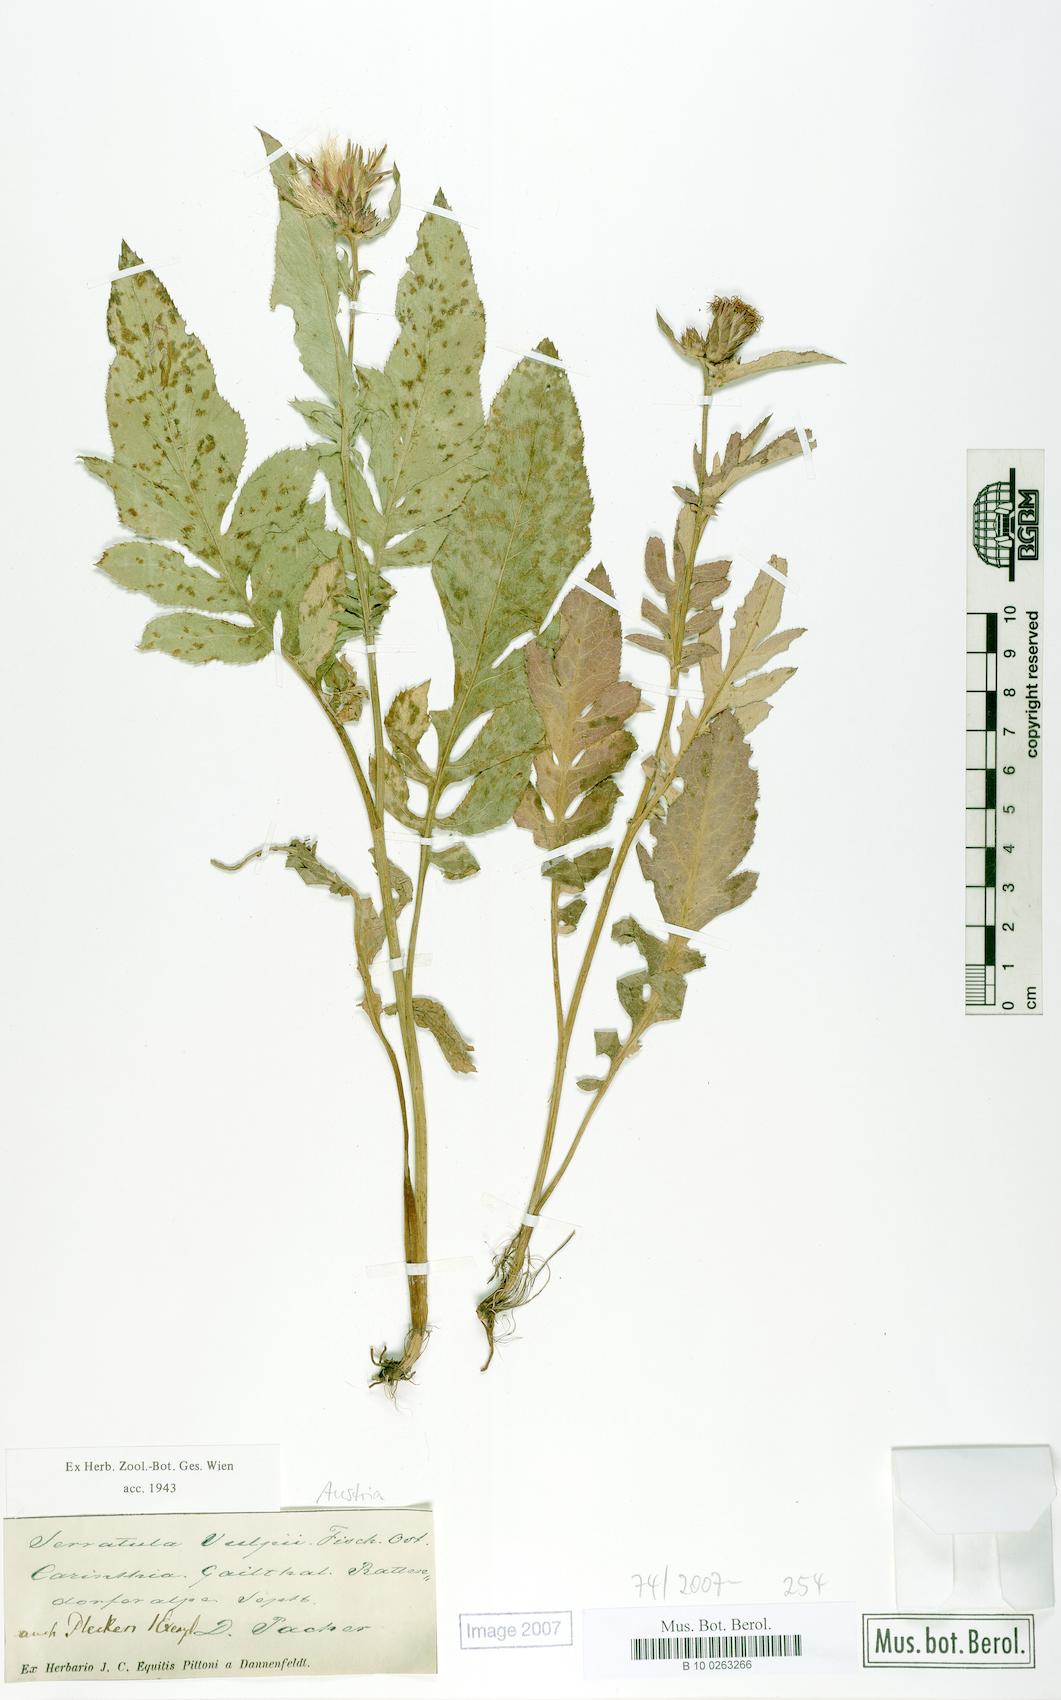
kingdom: Plantae
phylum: Tracheophyta
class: Magnoliopsida
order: Asterales
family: Asteraceae
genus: Serratula
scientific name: Serratula tinctoria
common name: Saw-wort
